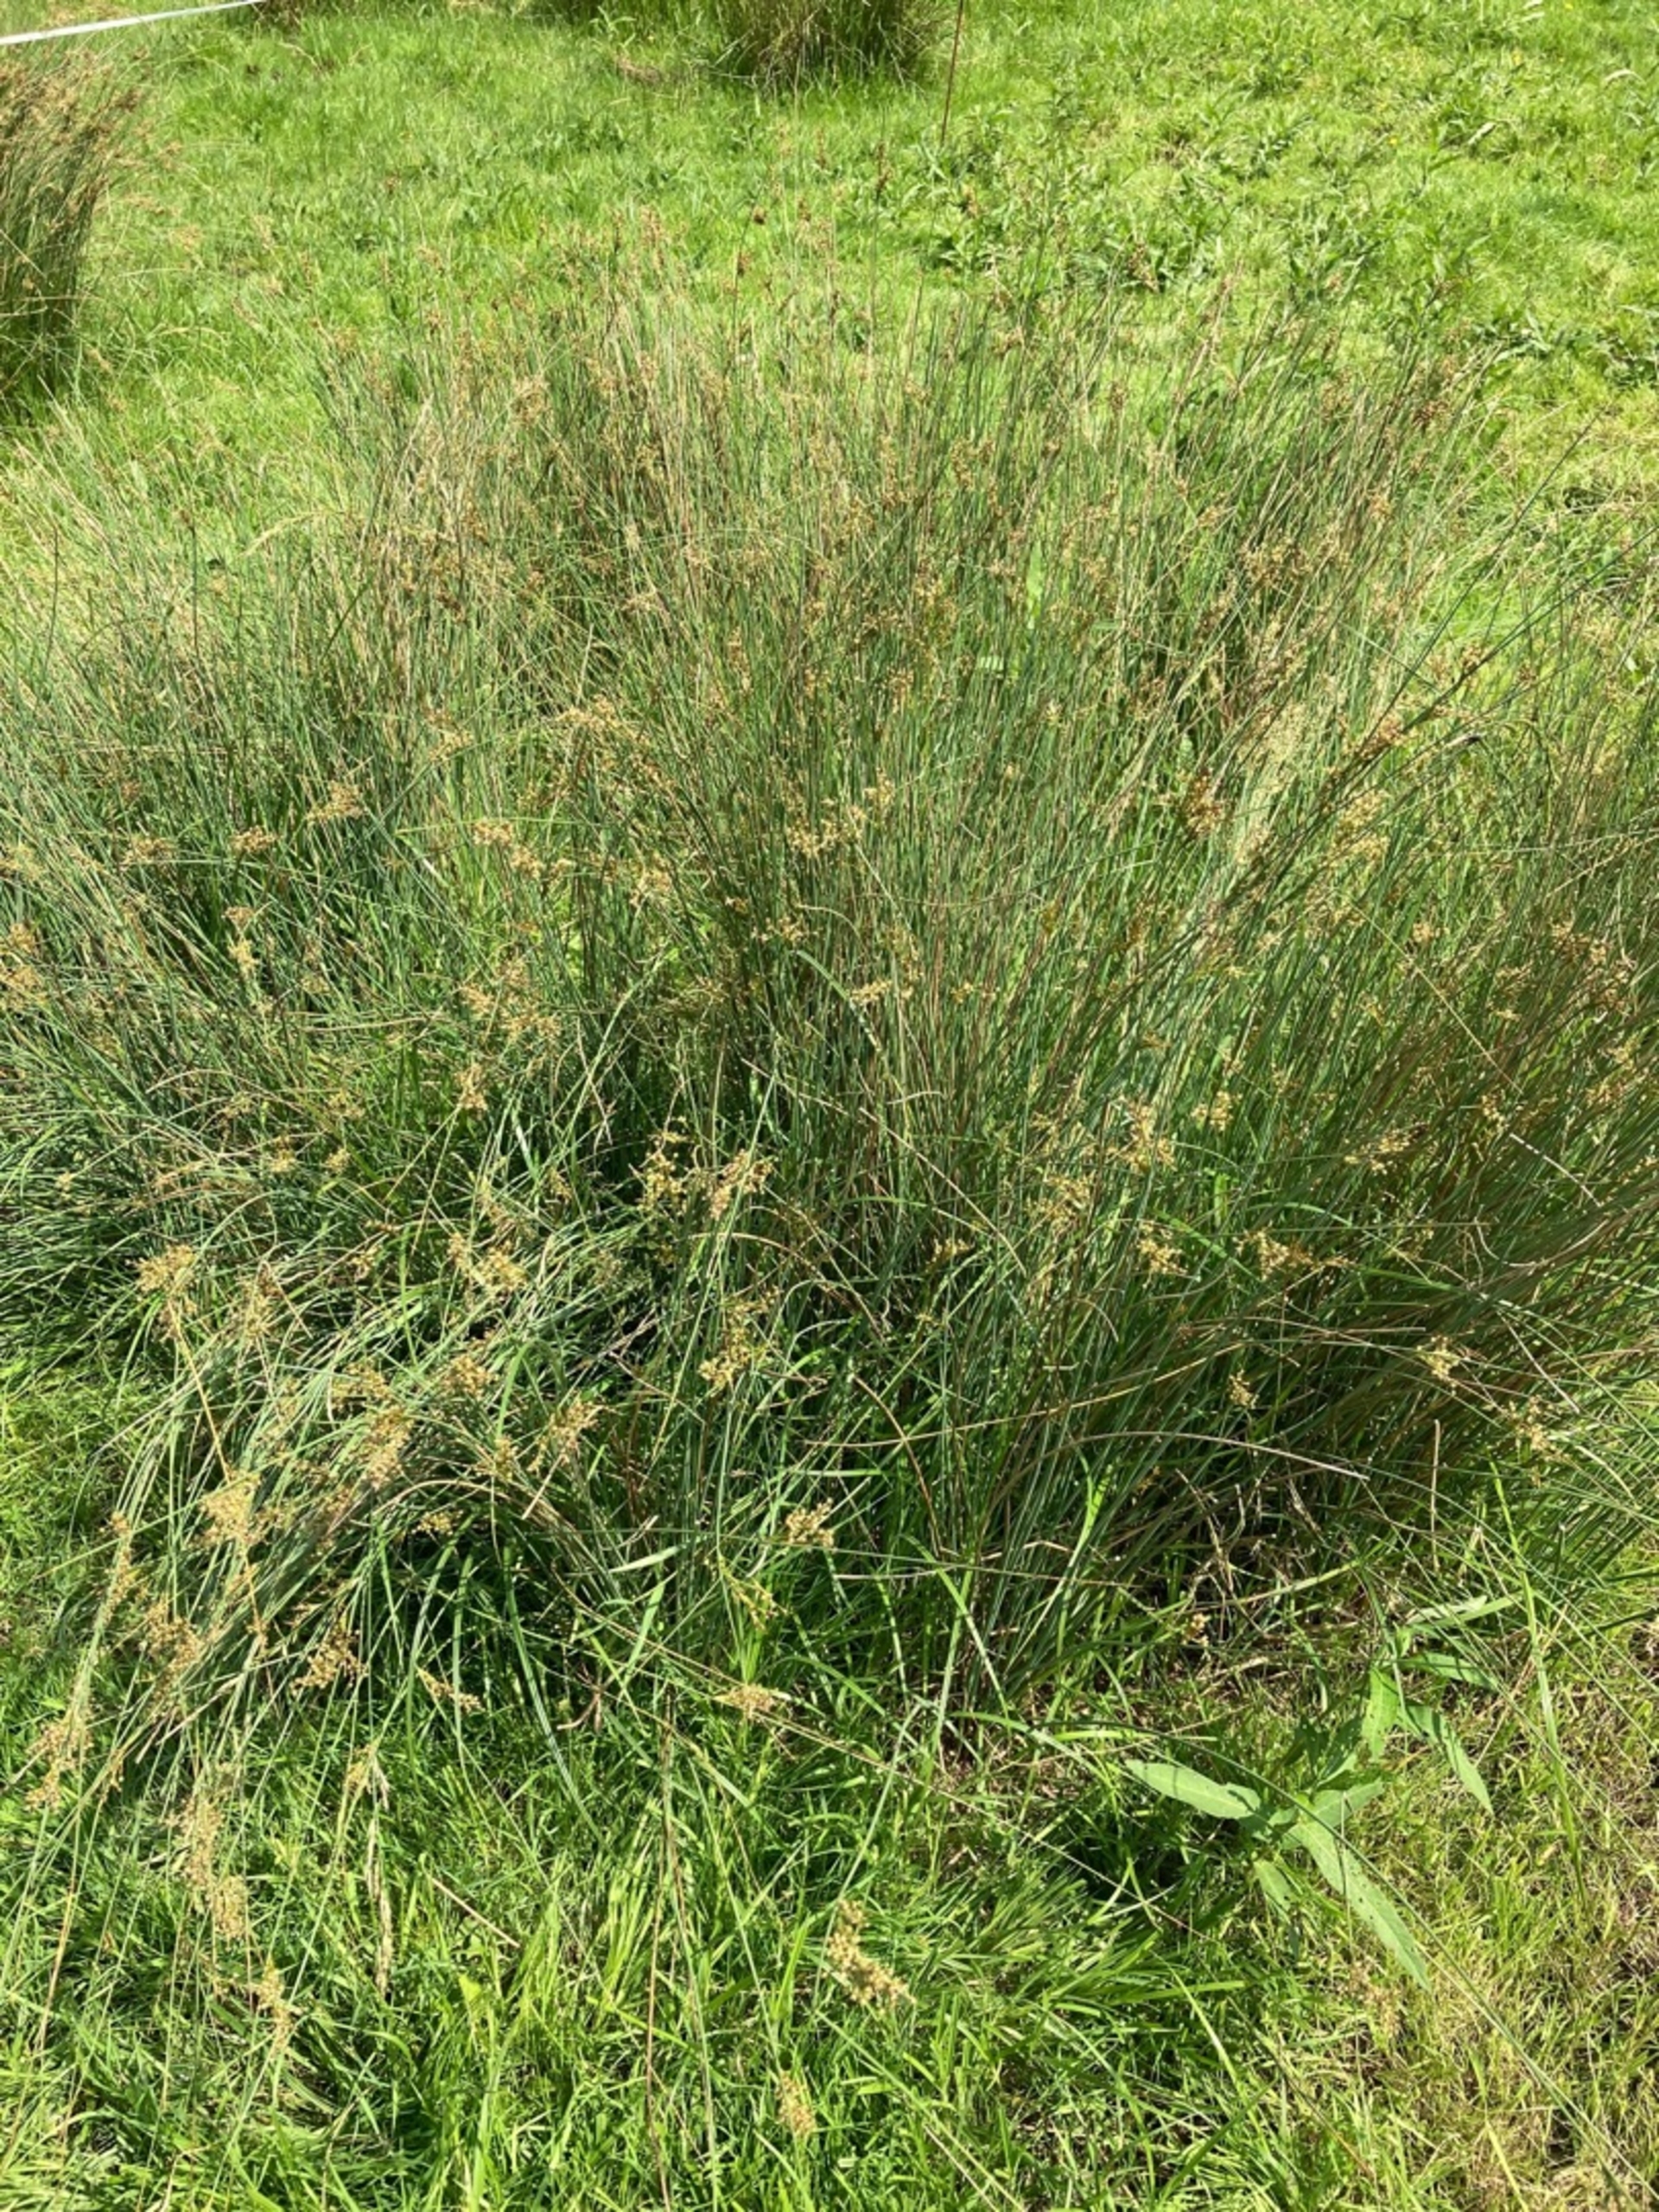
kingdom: Plantae
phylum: Tracheophyta
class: Liliopsida
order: Poales
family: Juncaceae
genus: Juncus
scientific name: Juncus inflexus
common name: Blågrå siv
